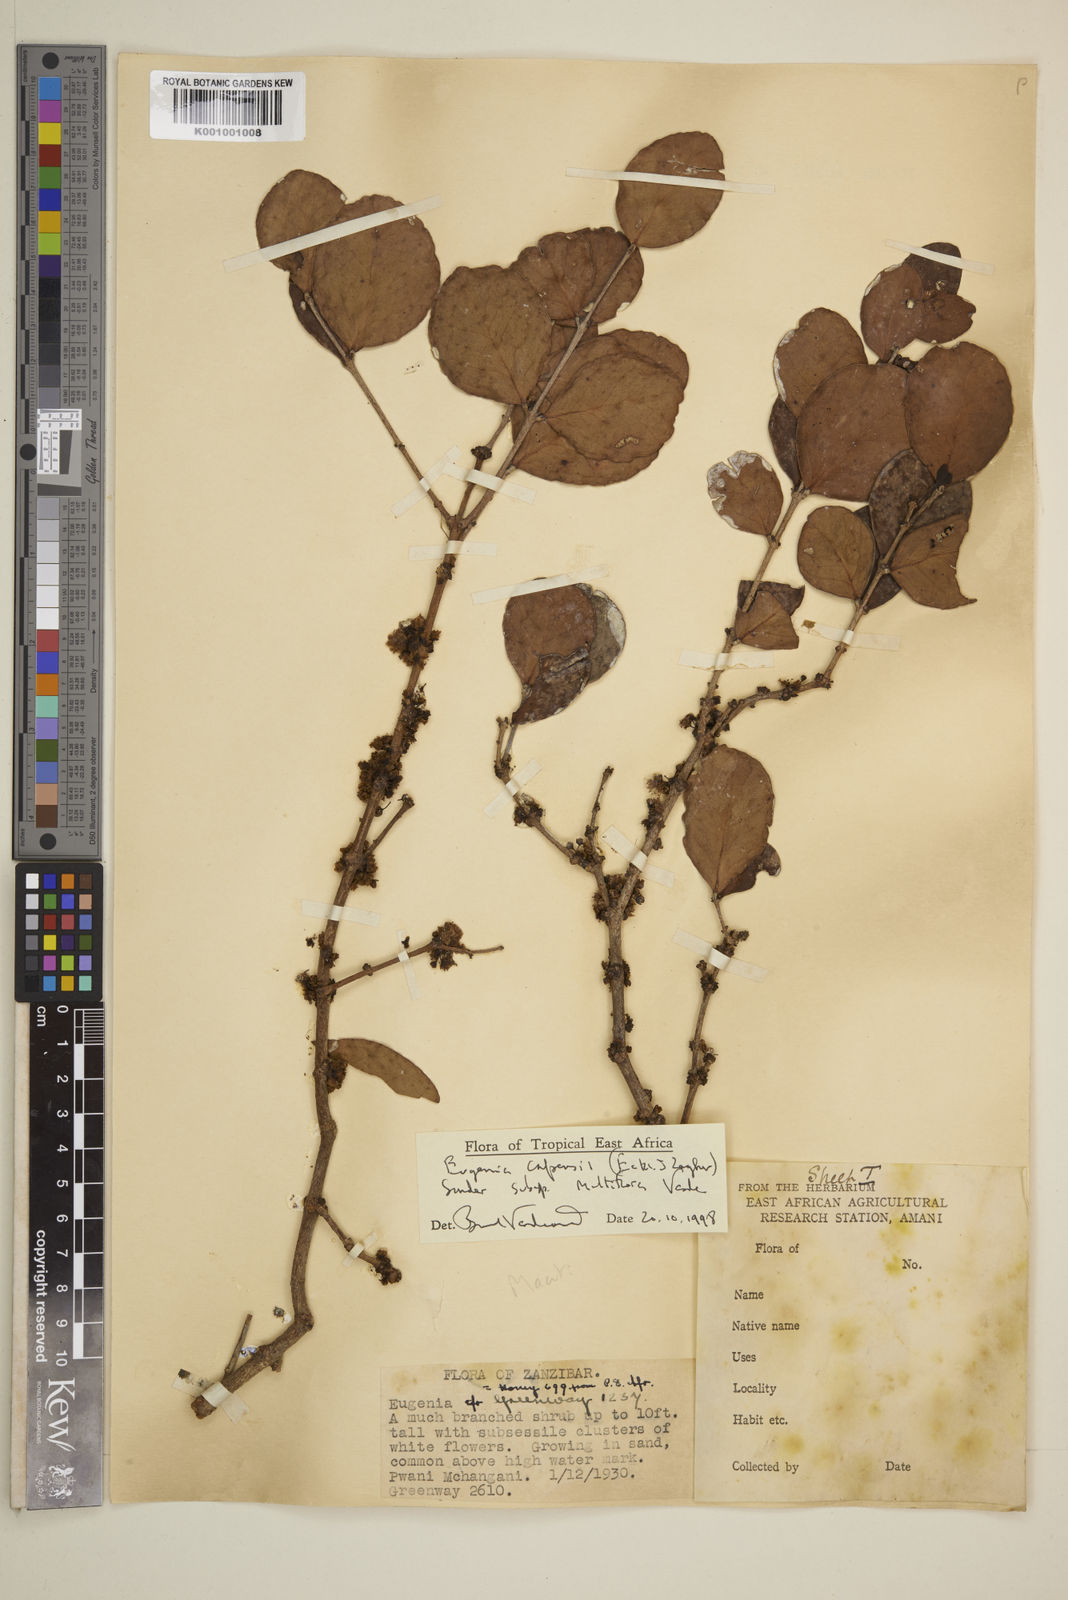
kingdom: Plantae
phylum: Tracheophyta
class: Magnoliopsida
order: Myrtales
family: Myrtaceae
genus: Eugenia
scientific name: Eugenia capensis
